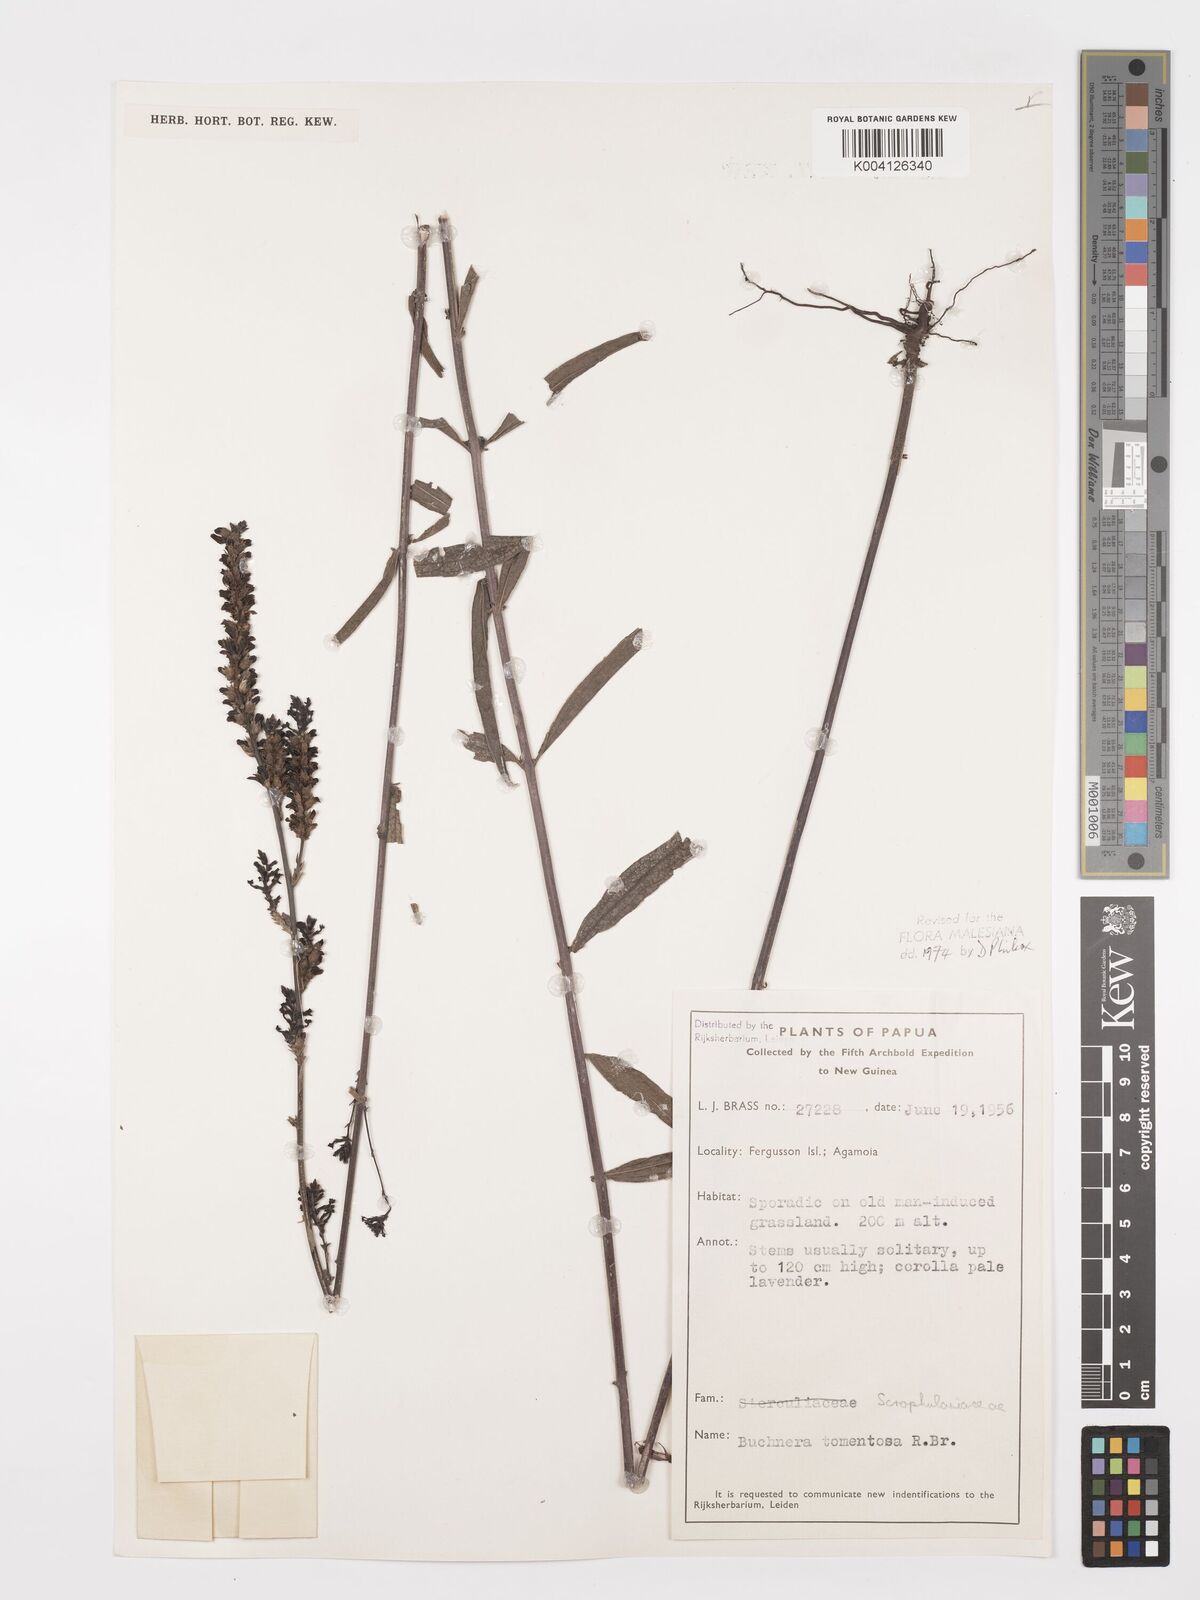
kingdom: Plantae
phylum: Tracheophyta
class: Magnoliopsida
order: Lamiales
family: Orobanchaceae
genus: Buchnera
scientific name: Buchnera tomentosa
